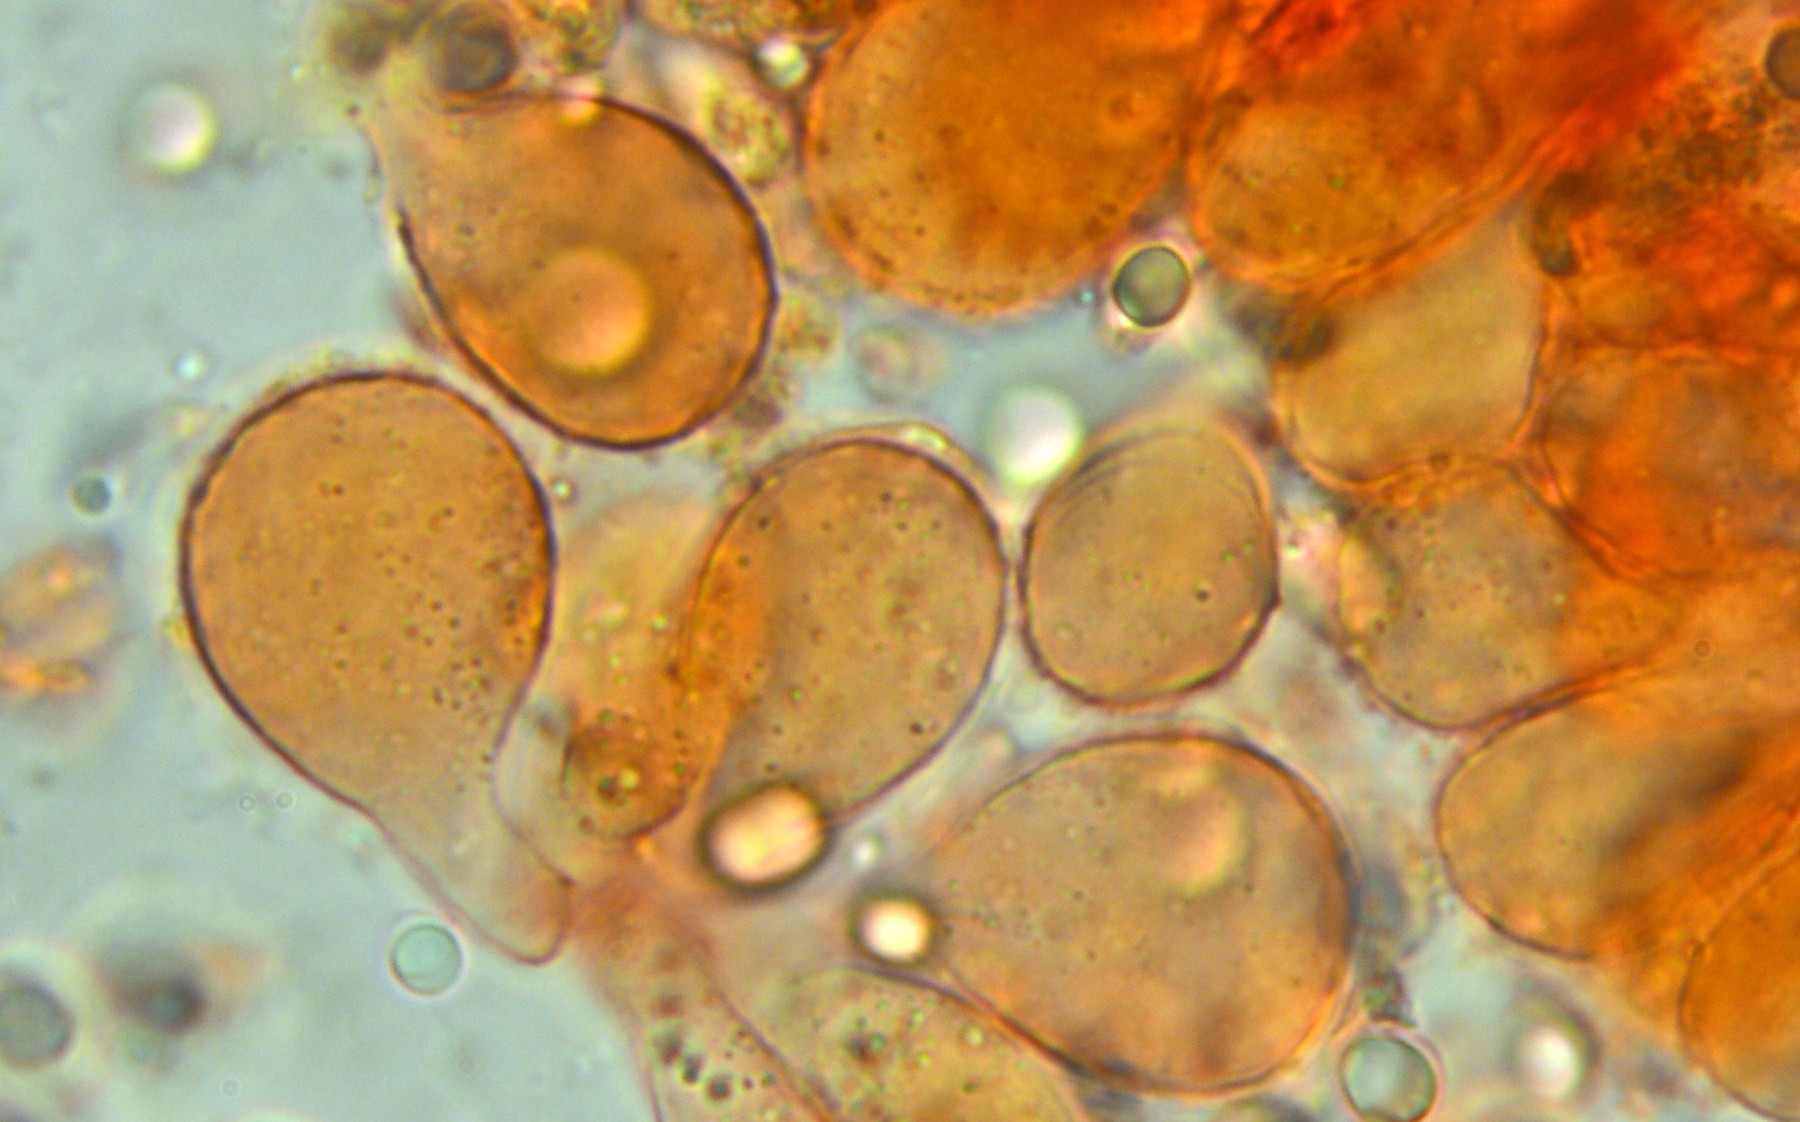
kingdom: Fungi
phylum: Basidiomycota
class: Agaricomycetes
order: Agaricales
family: Mycenaceae
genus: Mycena
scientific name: Mycena chlorantha
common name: klit-huesvamp
